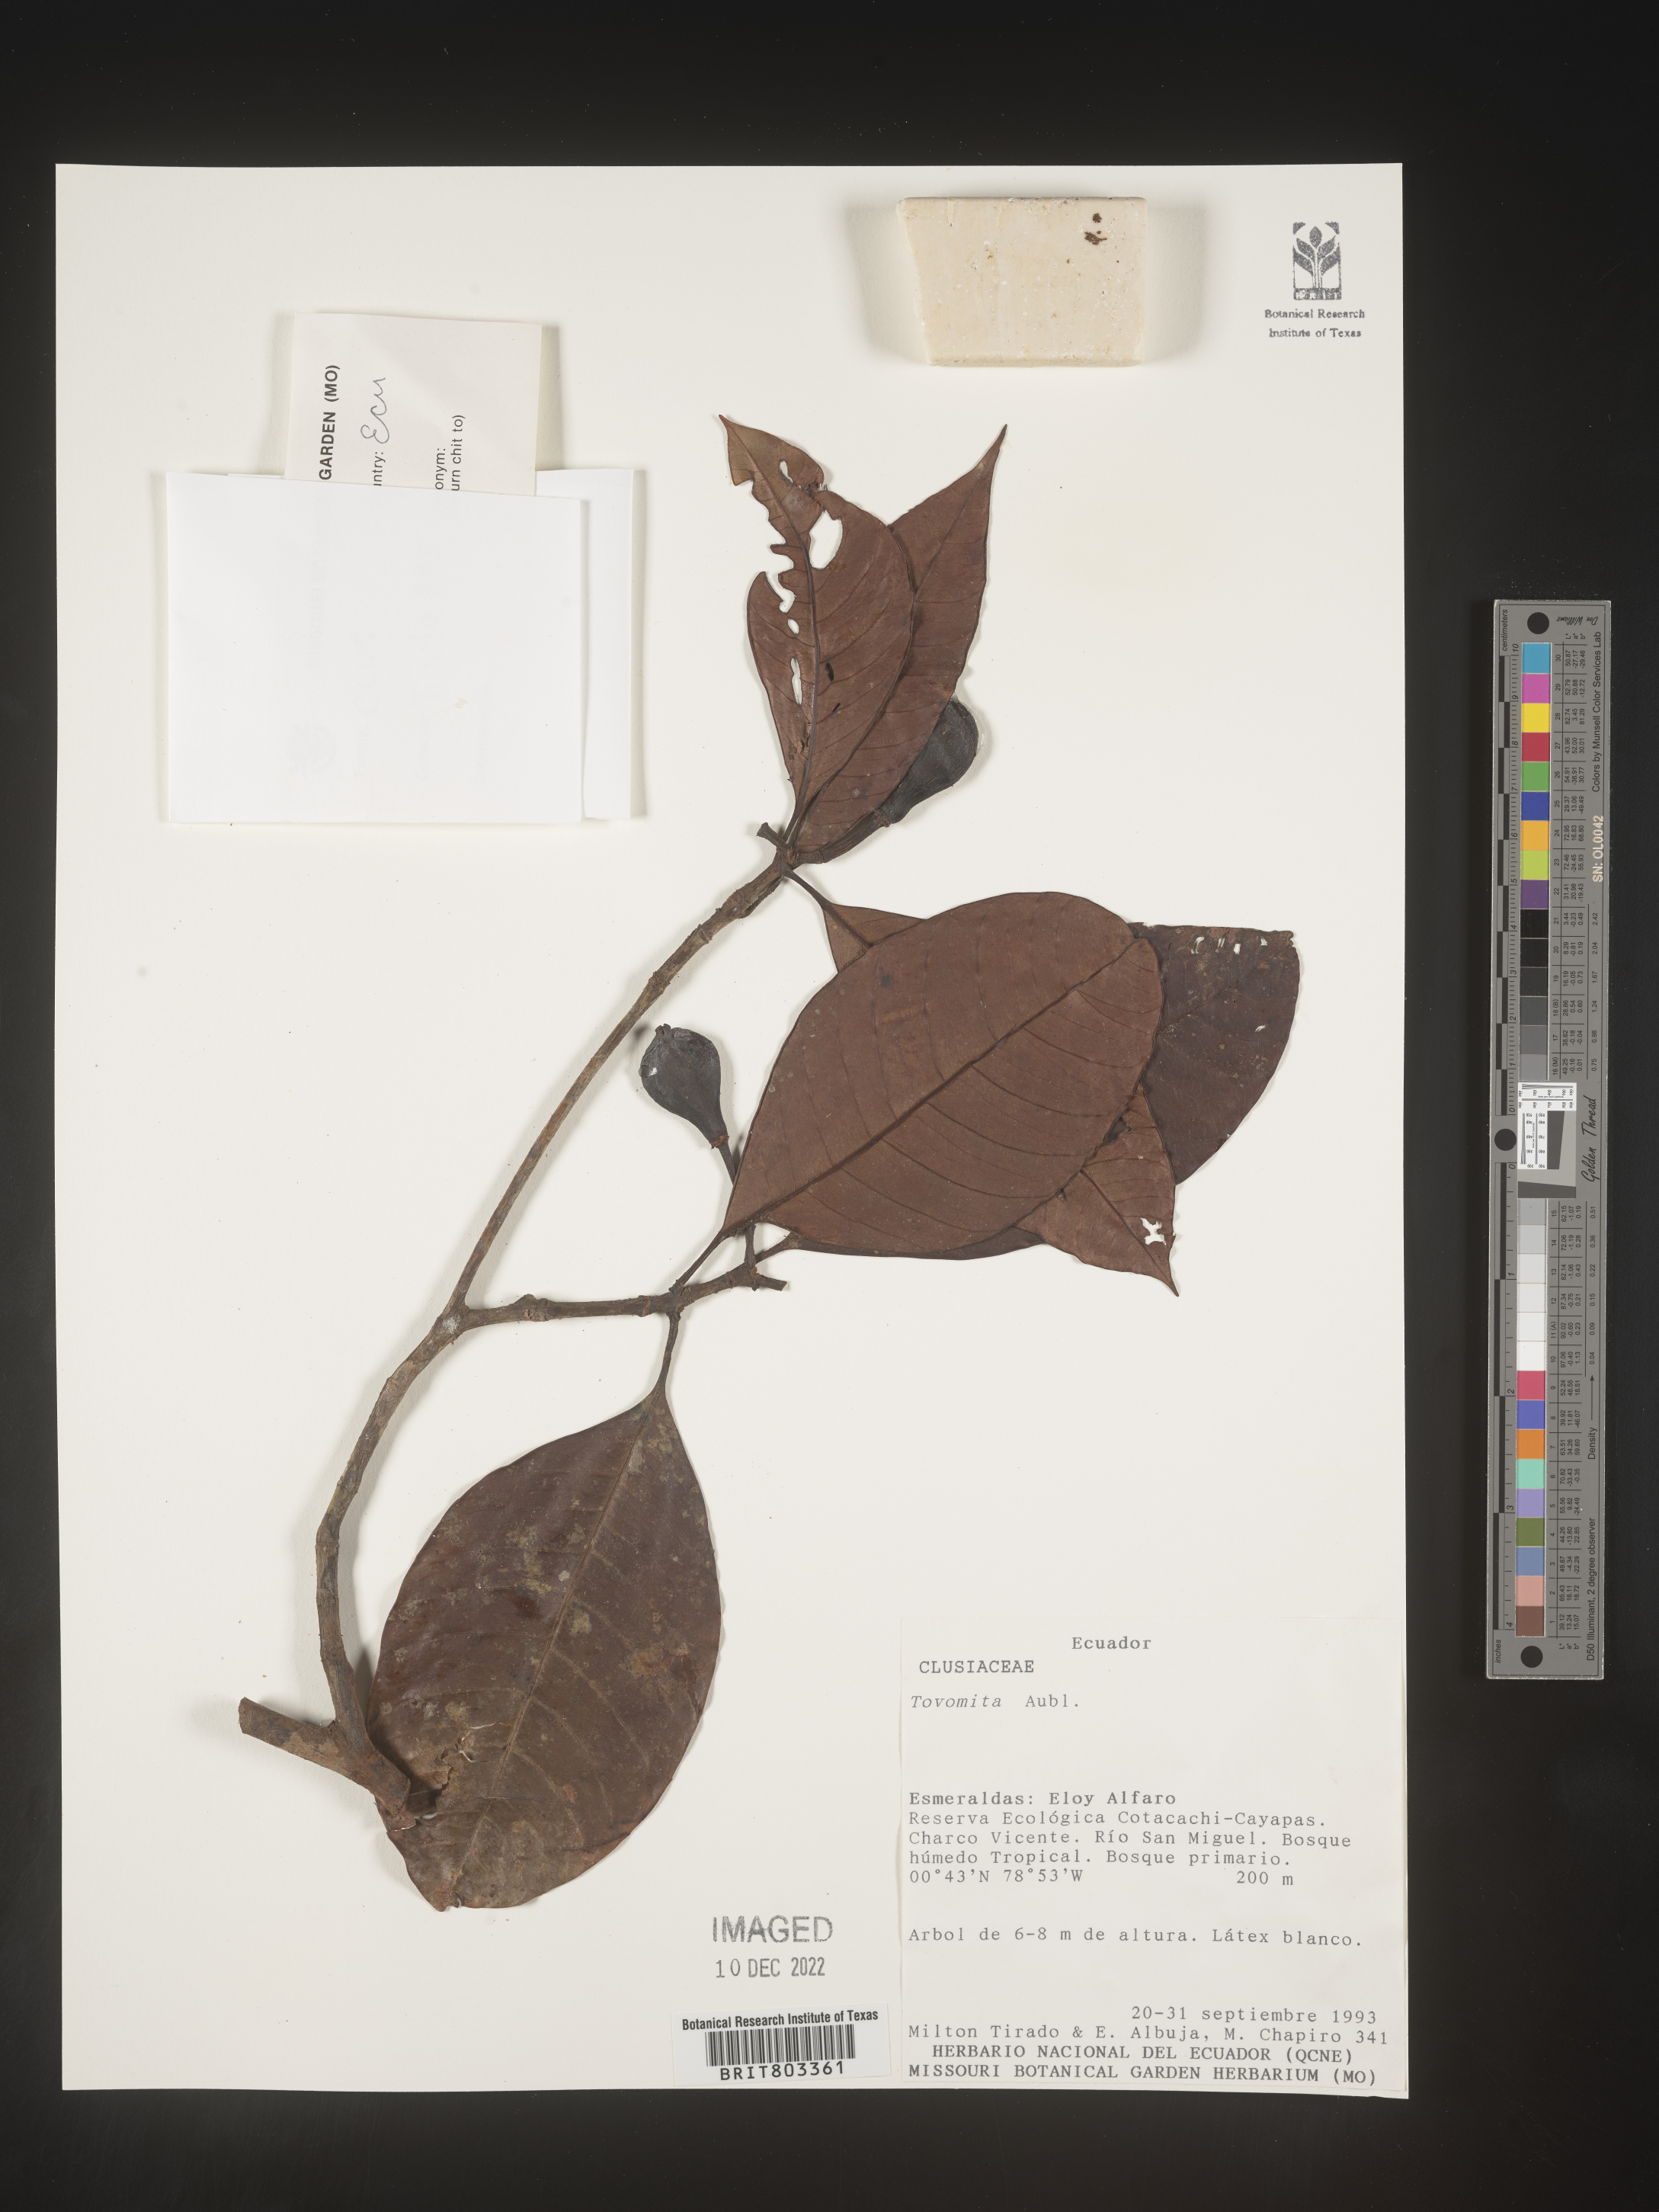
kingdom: Plantae
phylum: Tracheophyta
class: Magnoliopsida
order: Malpighiales
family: Clusiaceae
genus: Tovomita
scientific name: Tovomita
